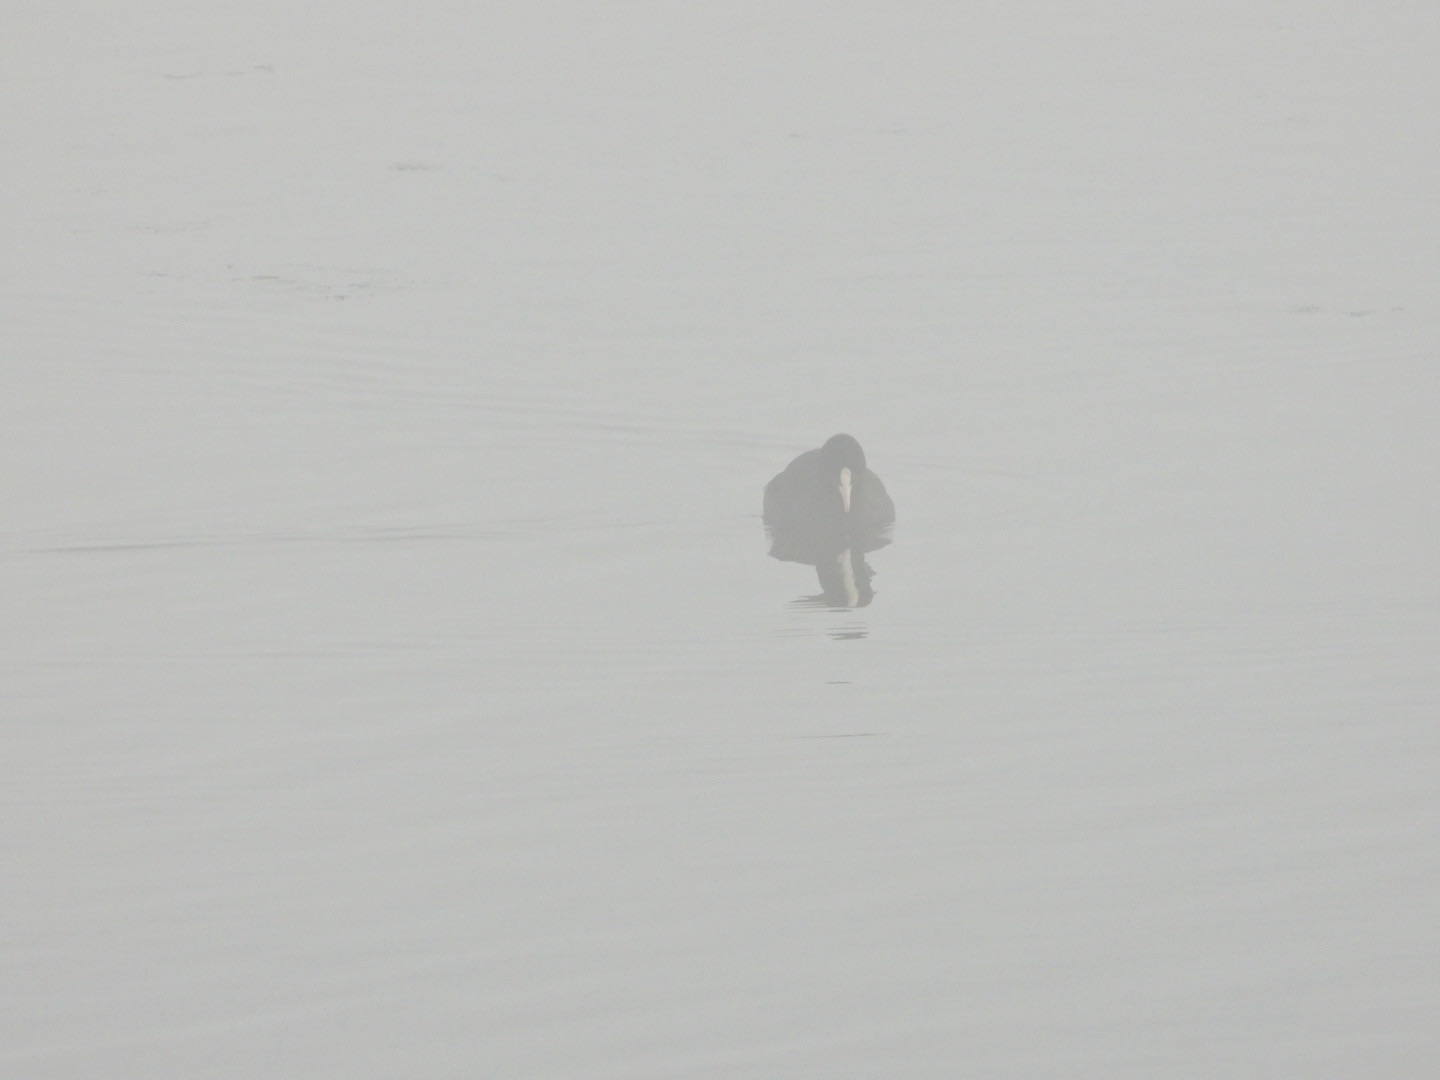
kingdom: Animalia
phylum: Chordata
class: Aves
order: Gruiformes
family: Rallidae
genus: Fulica
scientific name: Fulica atra
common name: Blishøne
